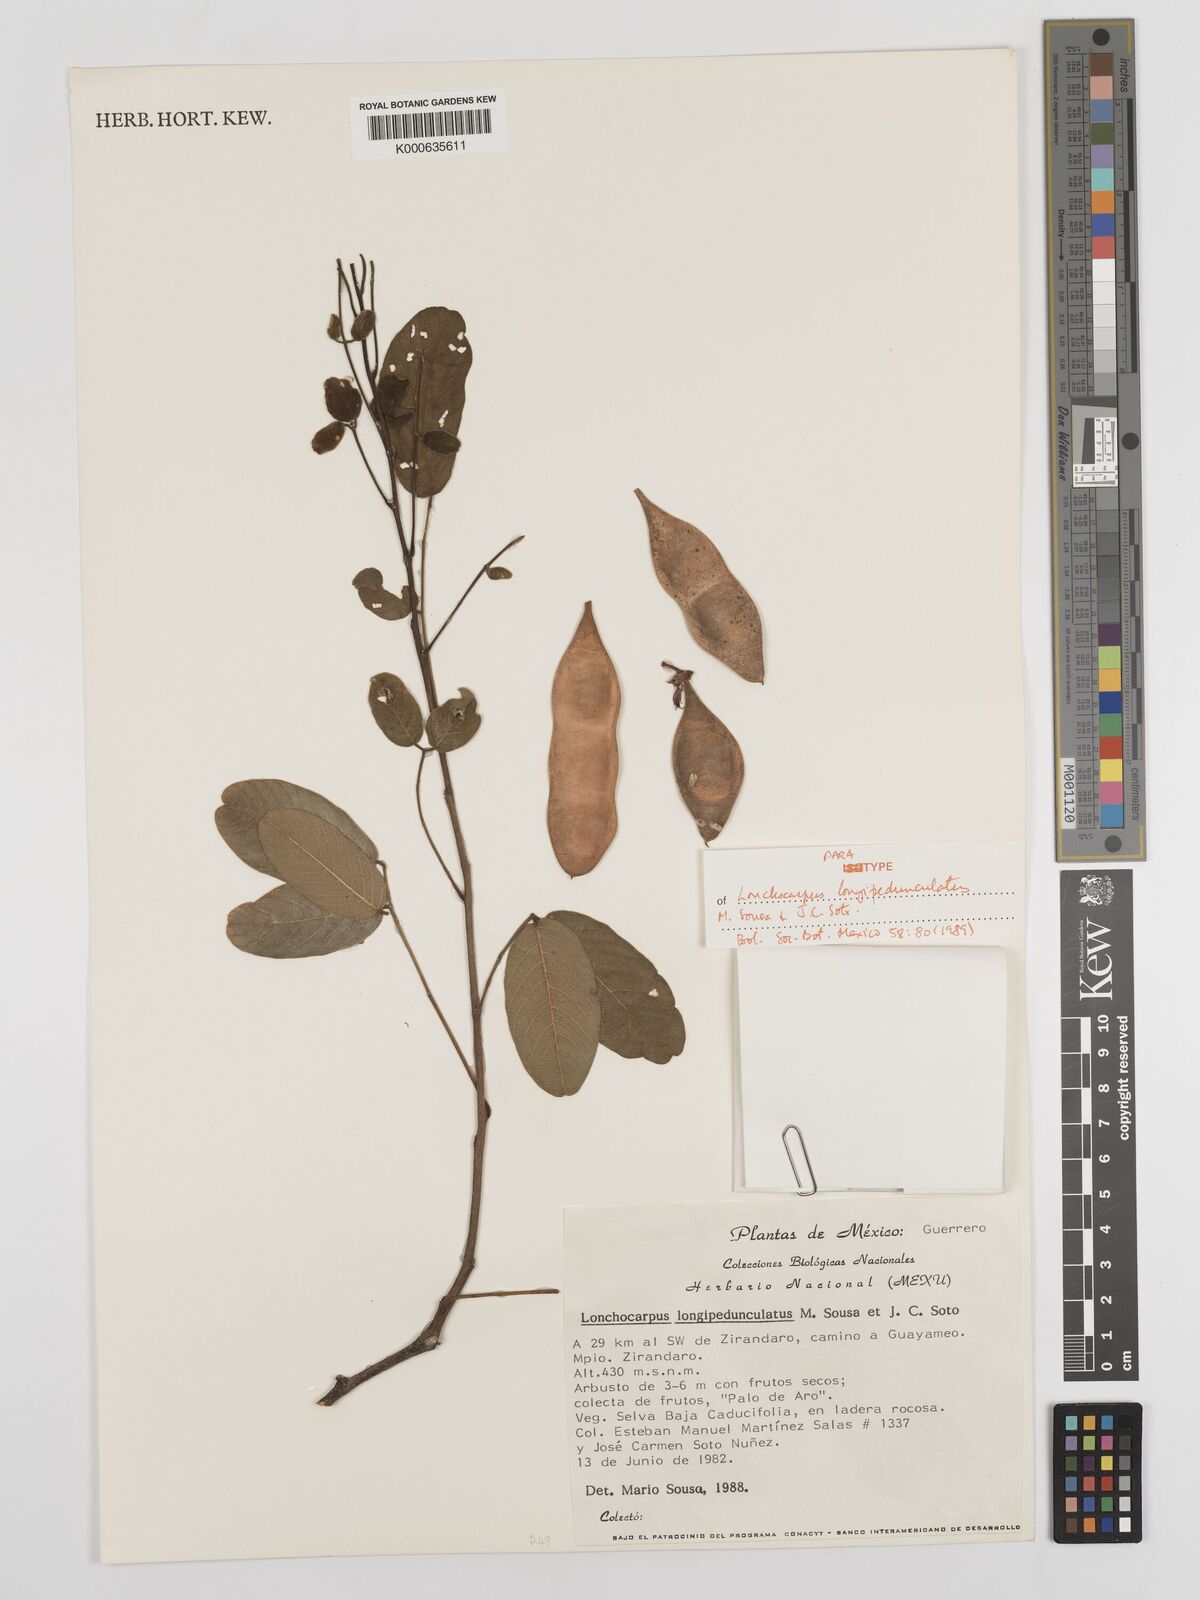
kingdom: Plantae
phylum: Tracheophyta
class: Magnoliopsida
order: Fabales
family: Fabaceae
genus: Lonchocarpus
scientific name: Lonchocarpus longipedunculatus
